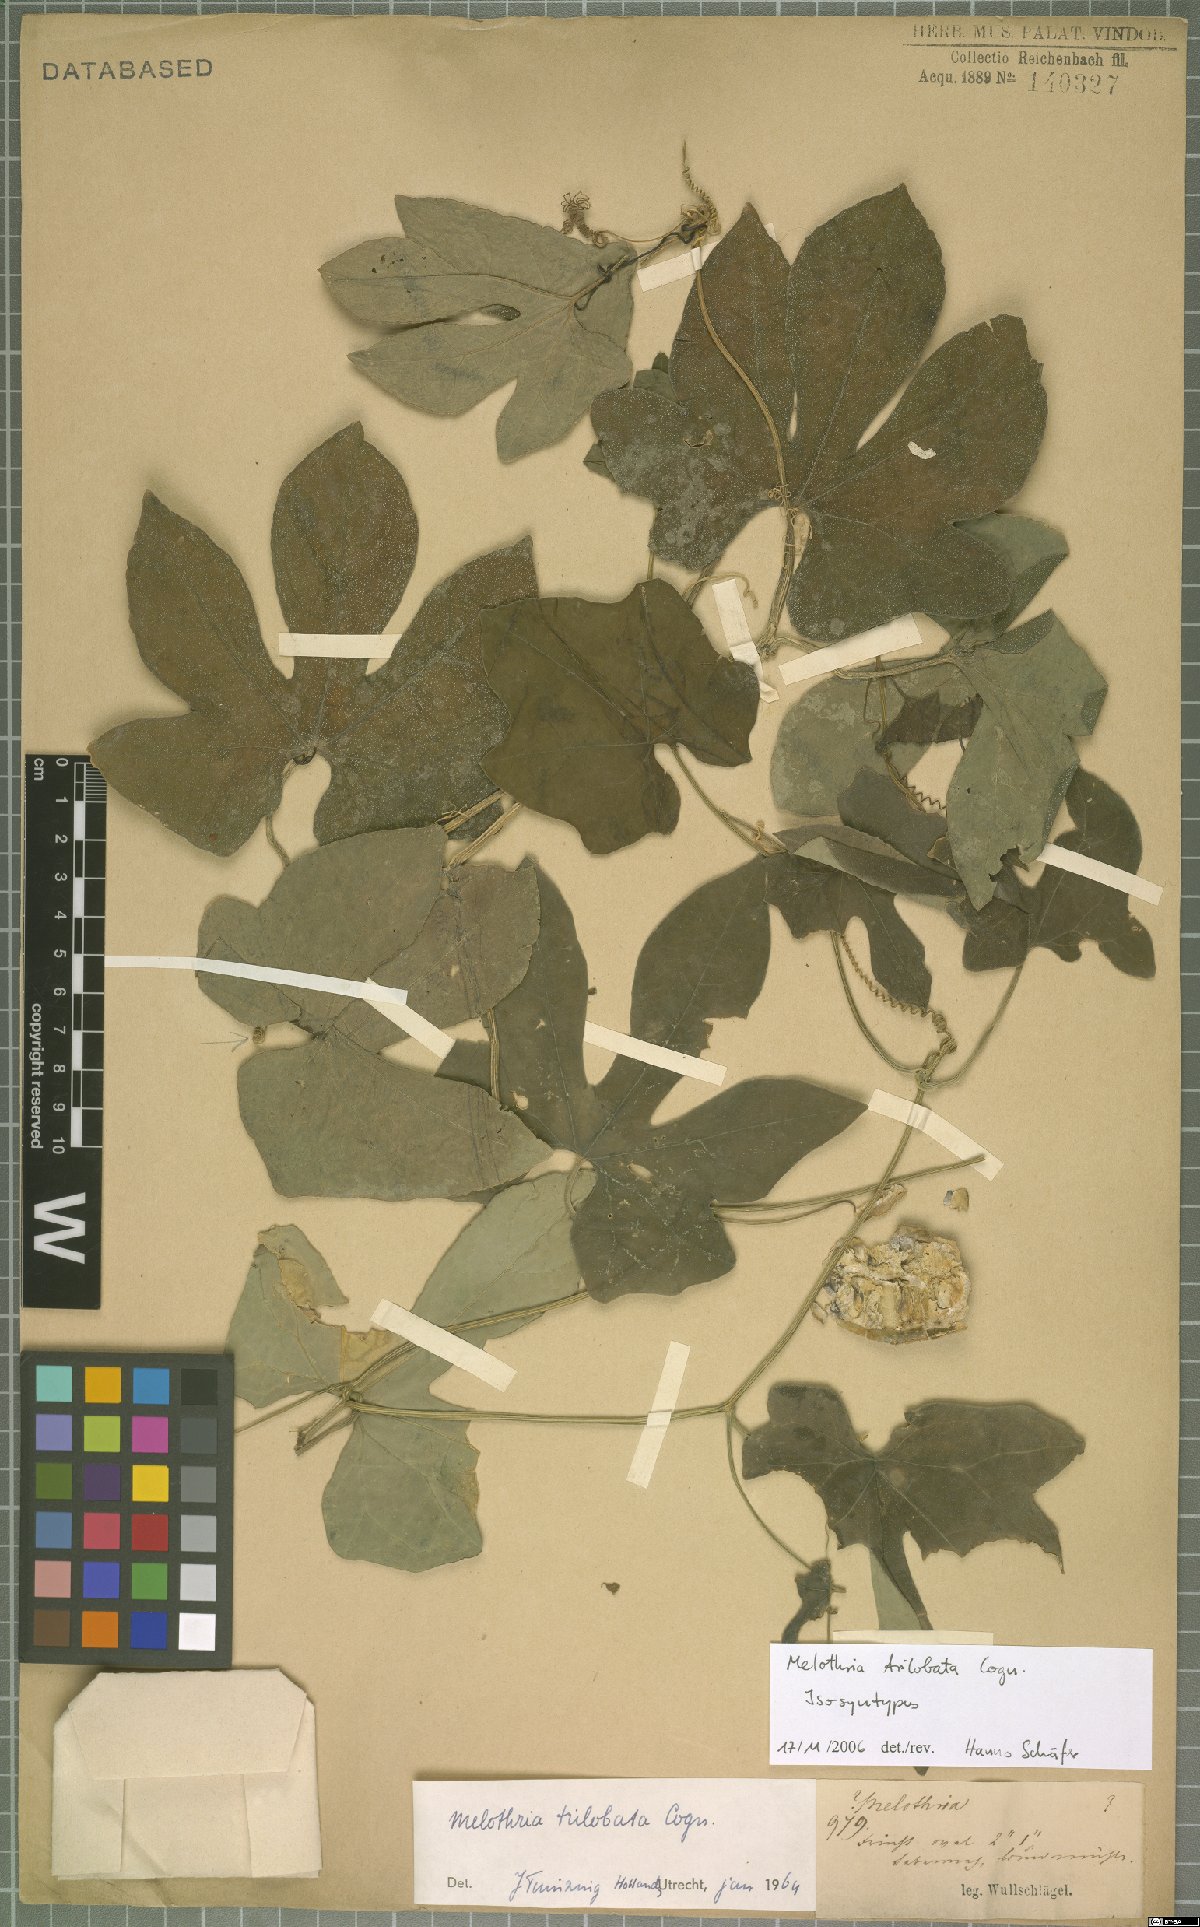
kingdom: Plantae
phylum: Tracheophyta
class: Magnoliopsida
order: Cucurbitales
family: Cucurbitaceae
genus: Melothria
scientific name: Melothria trilobata
